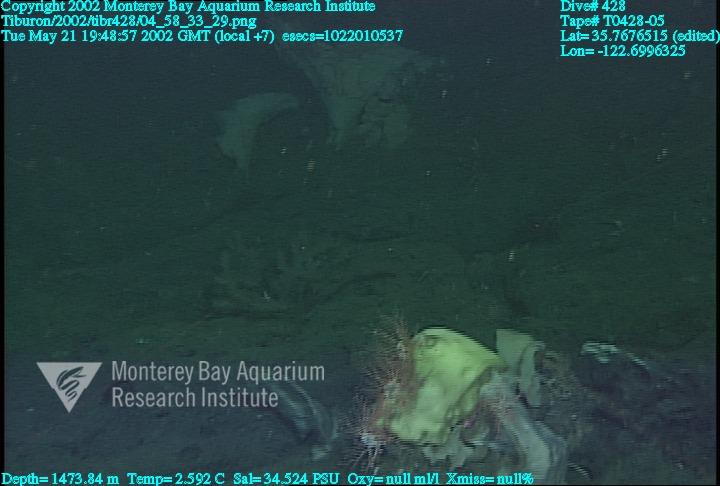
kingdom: Animalia
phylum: Porifera
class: Hexactinellida
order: Lyssacinosida
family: Rossellidae
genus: Staurocalyptus
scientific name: Staurocalyptus
